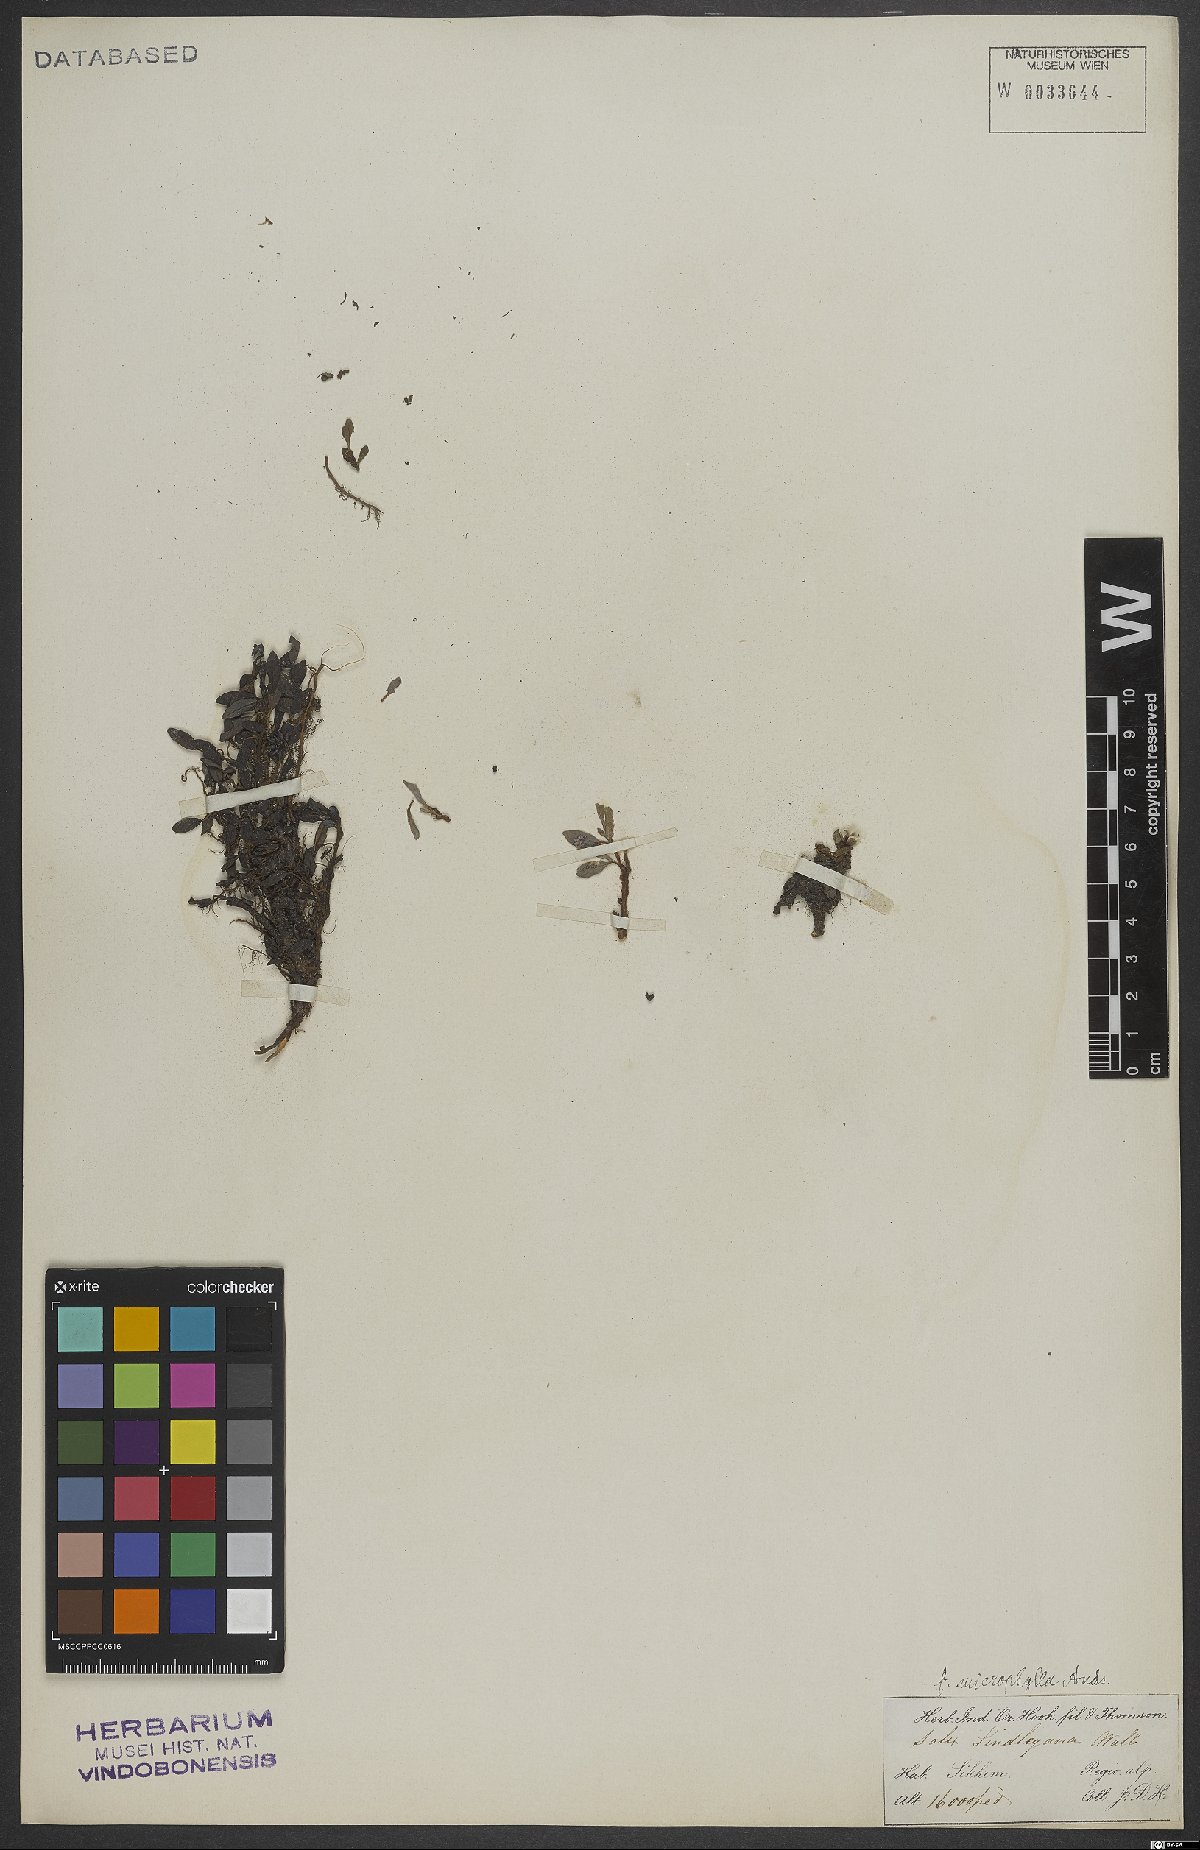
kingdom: Plantae
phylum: Tracheophyta
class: Magnoliopsida
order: Malpighiales
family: Salicaceae
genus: Salix
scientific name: Salix lindleyana
